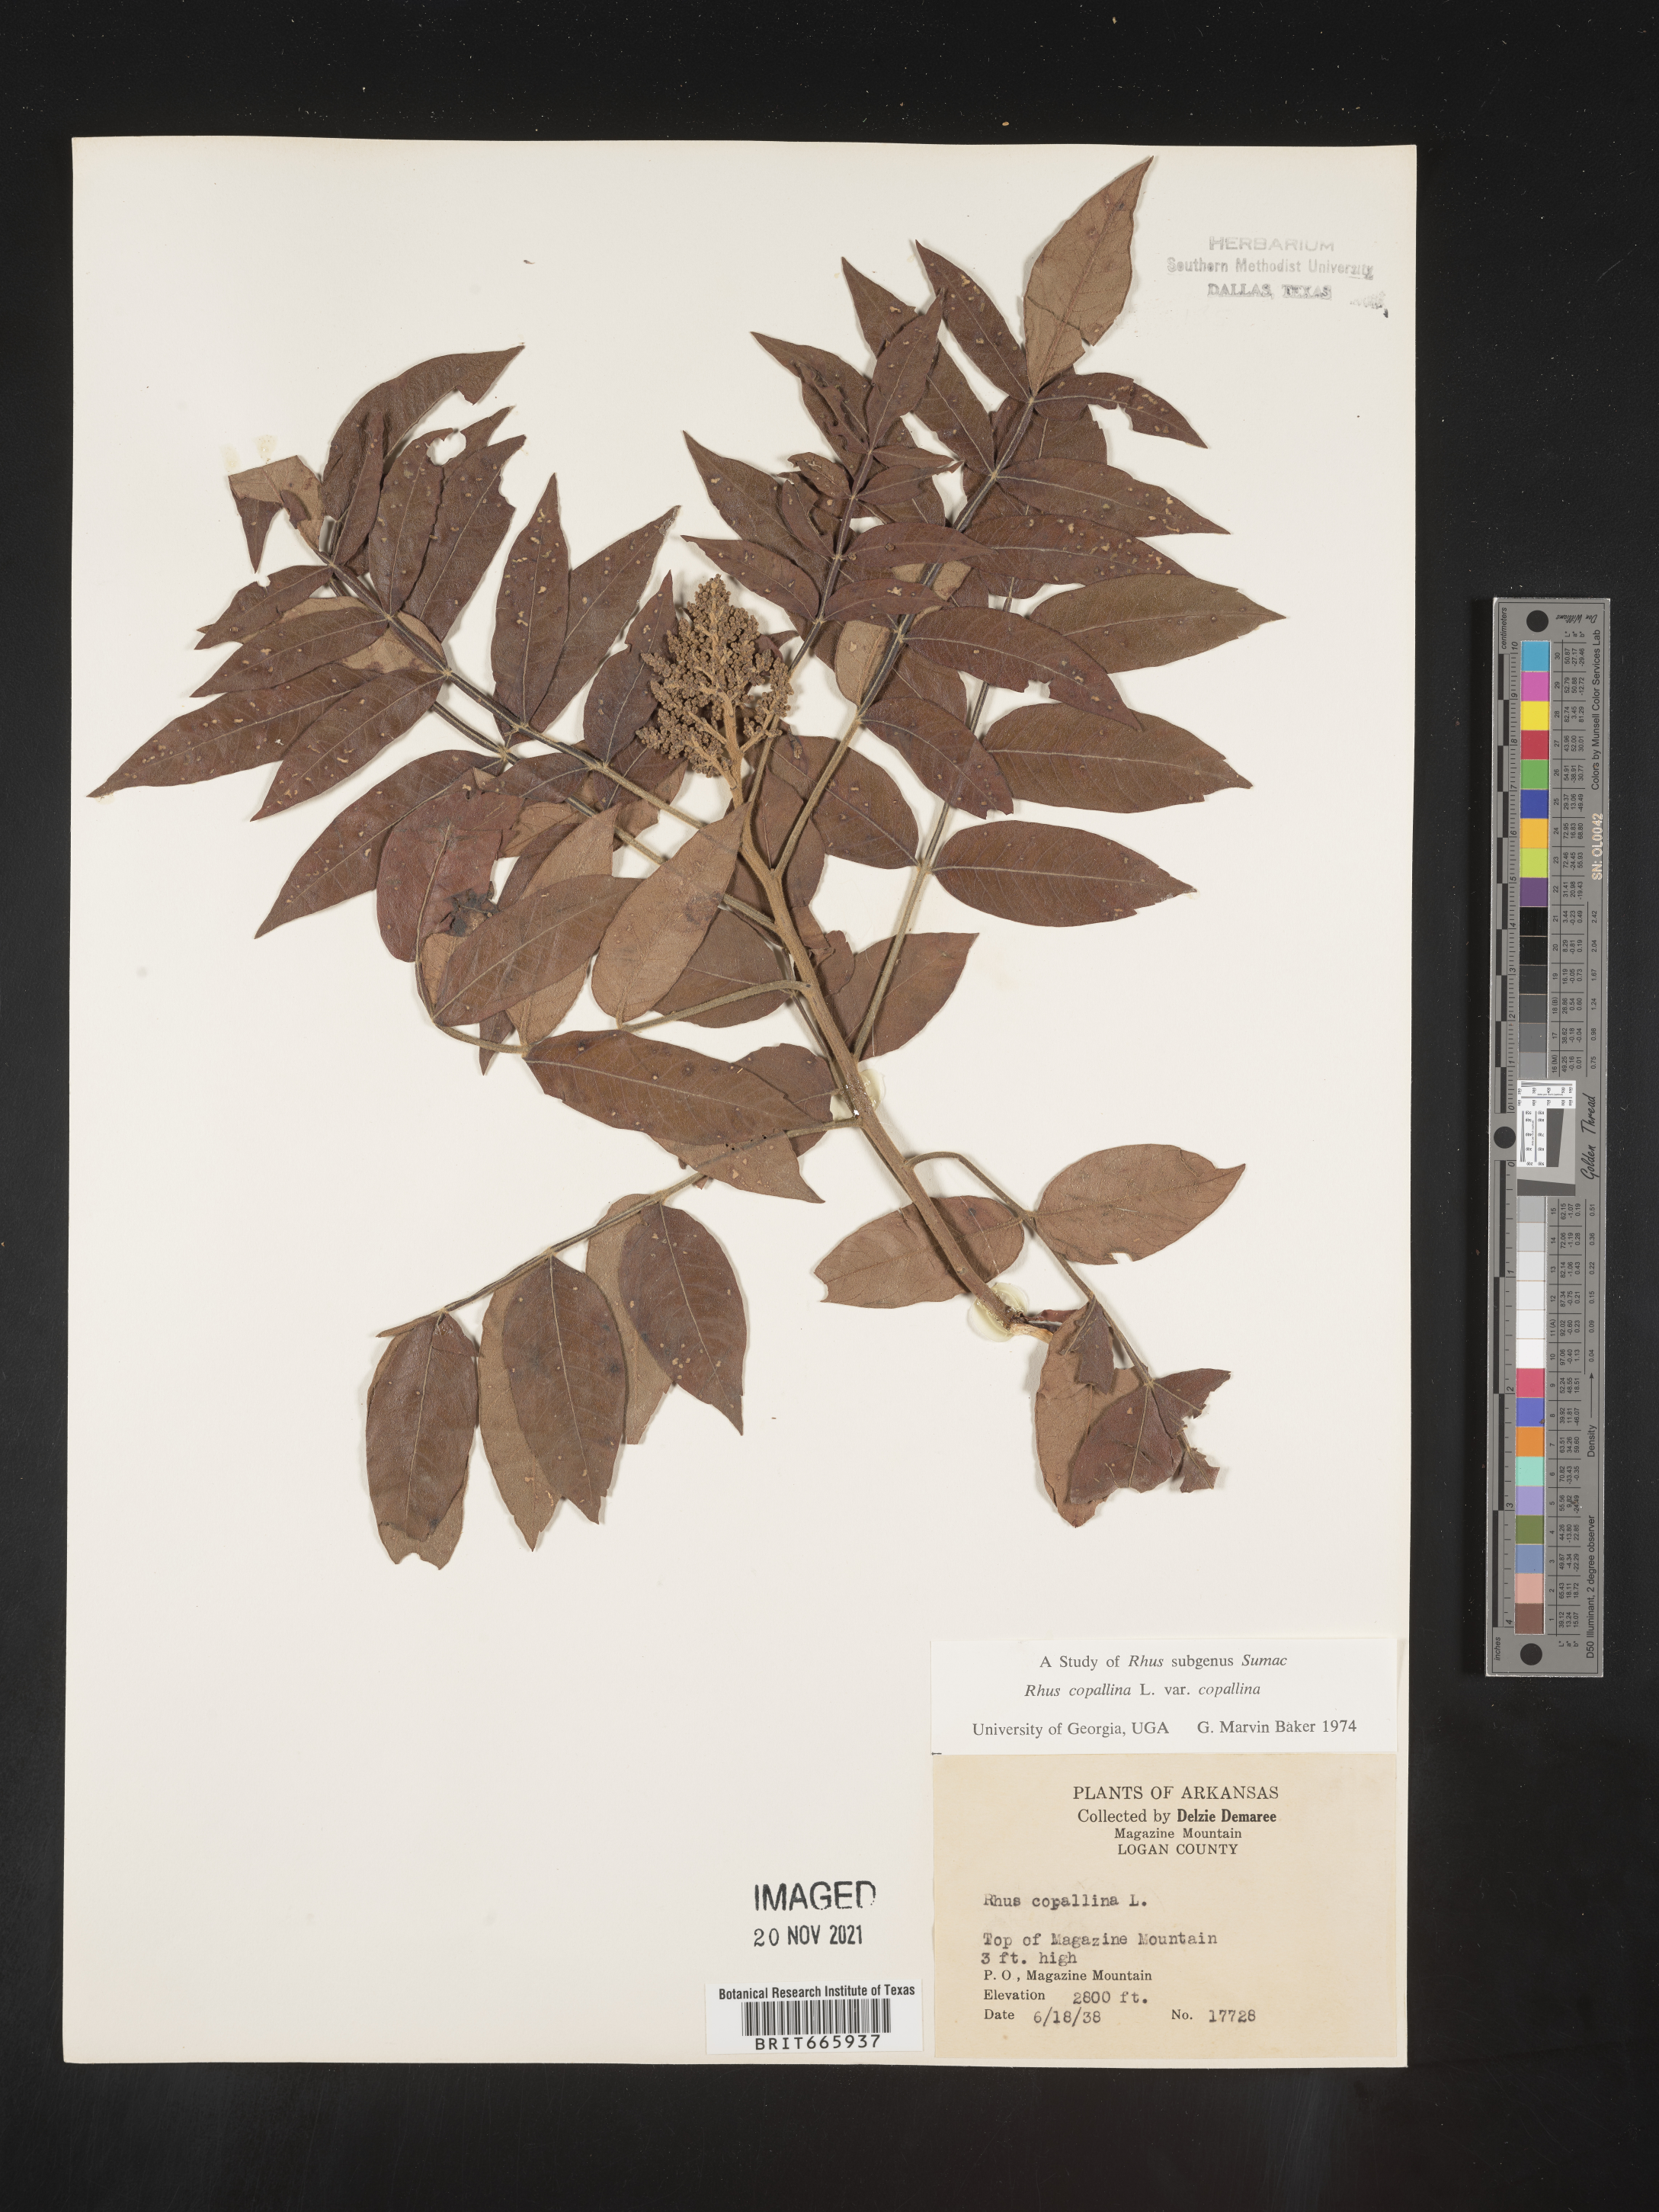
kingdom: Plantae
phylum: Tracheophyta
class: Magnoliopsida
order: Sapindales
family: Anacardiaceae
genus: Rhus
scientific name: Rhus copallina
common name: Shining sumac
